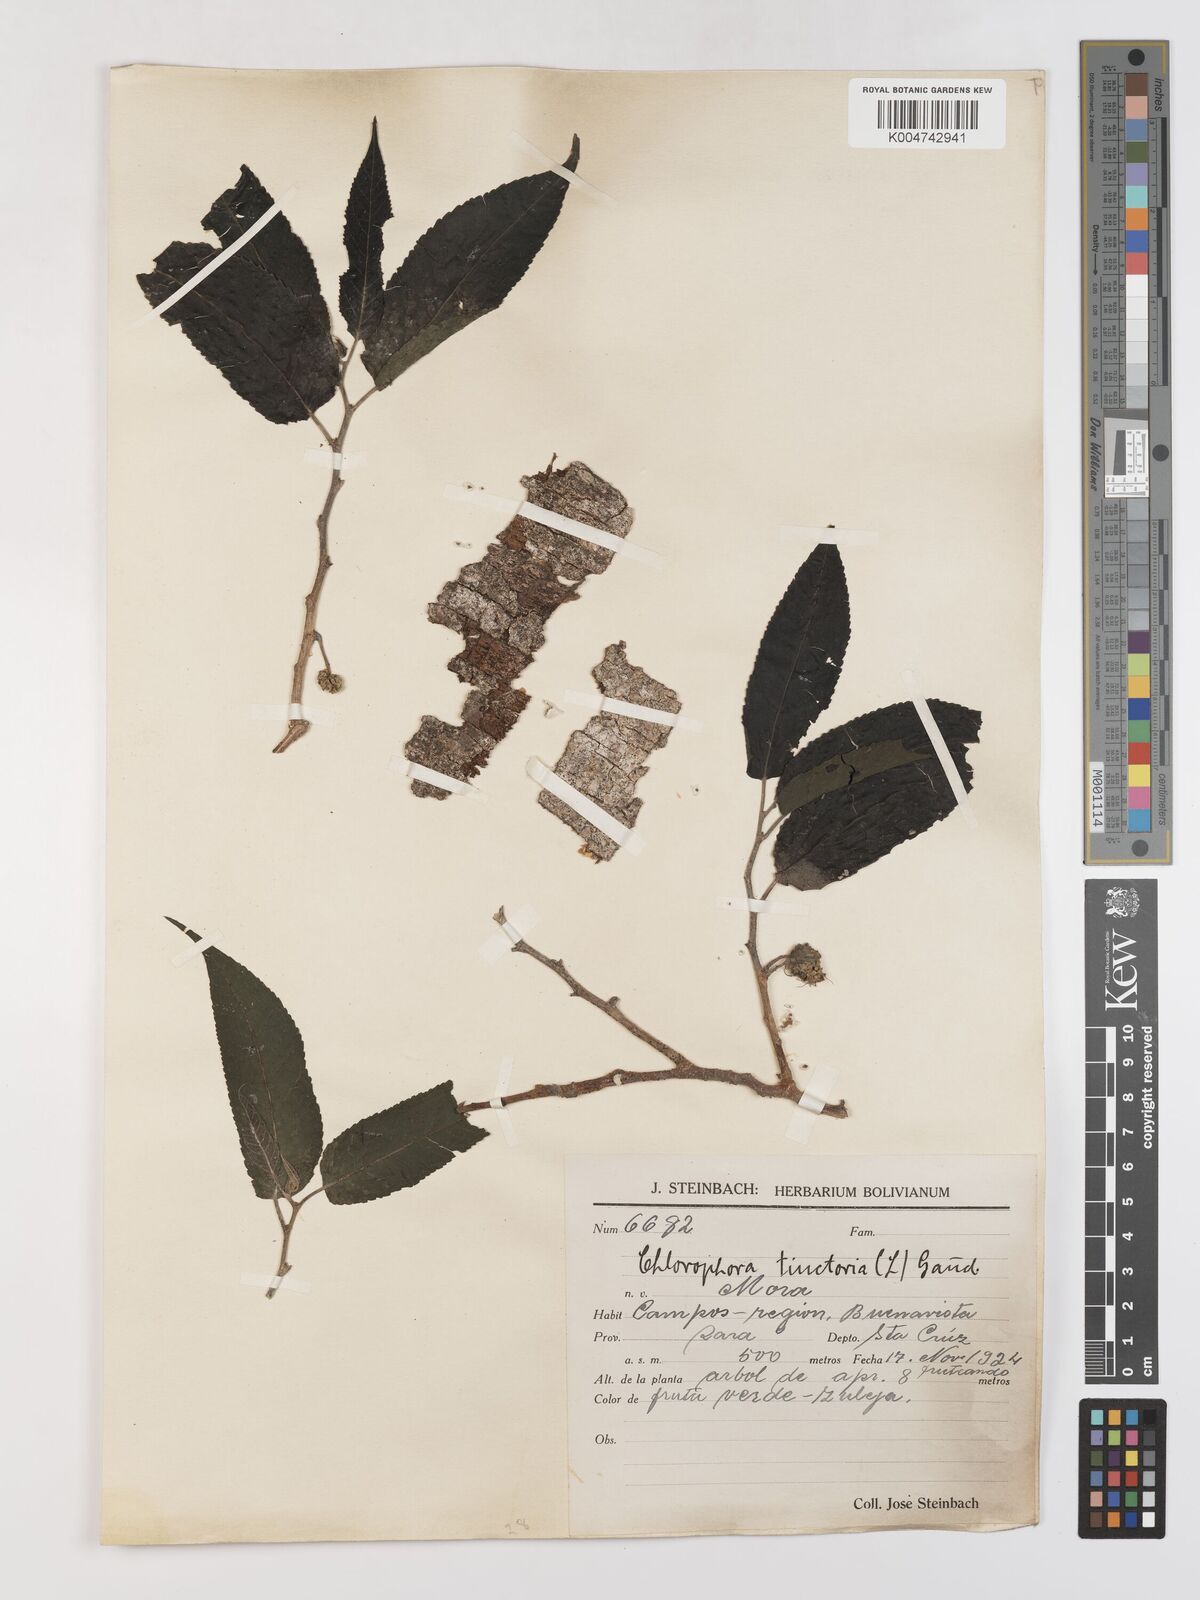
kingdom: Plantae
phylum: Tracheophyta
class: Magnoliopsida
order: Rosales
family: Moraceae
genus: Maclura
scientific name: Maclura tinctoria
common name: Old fustic
